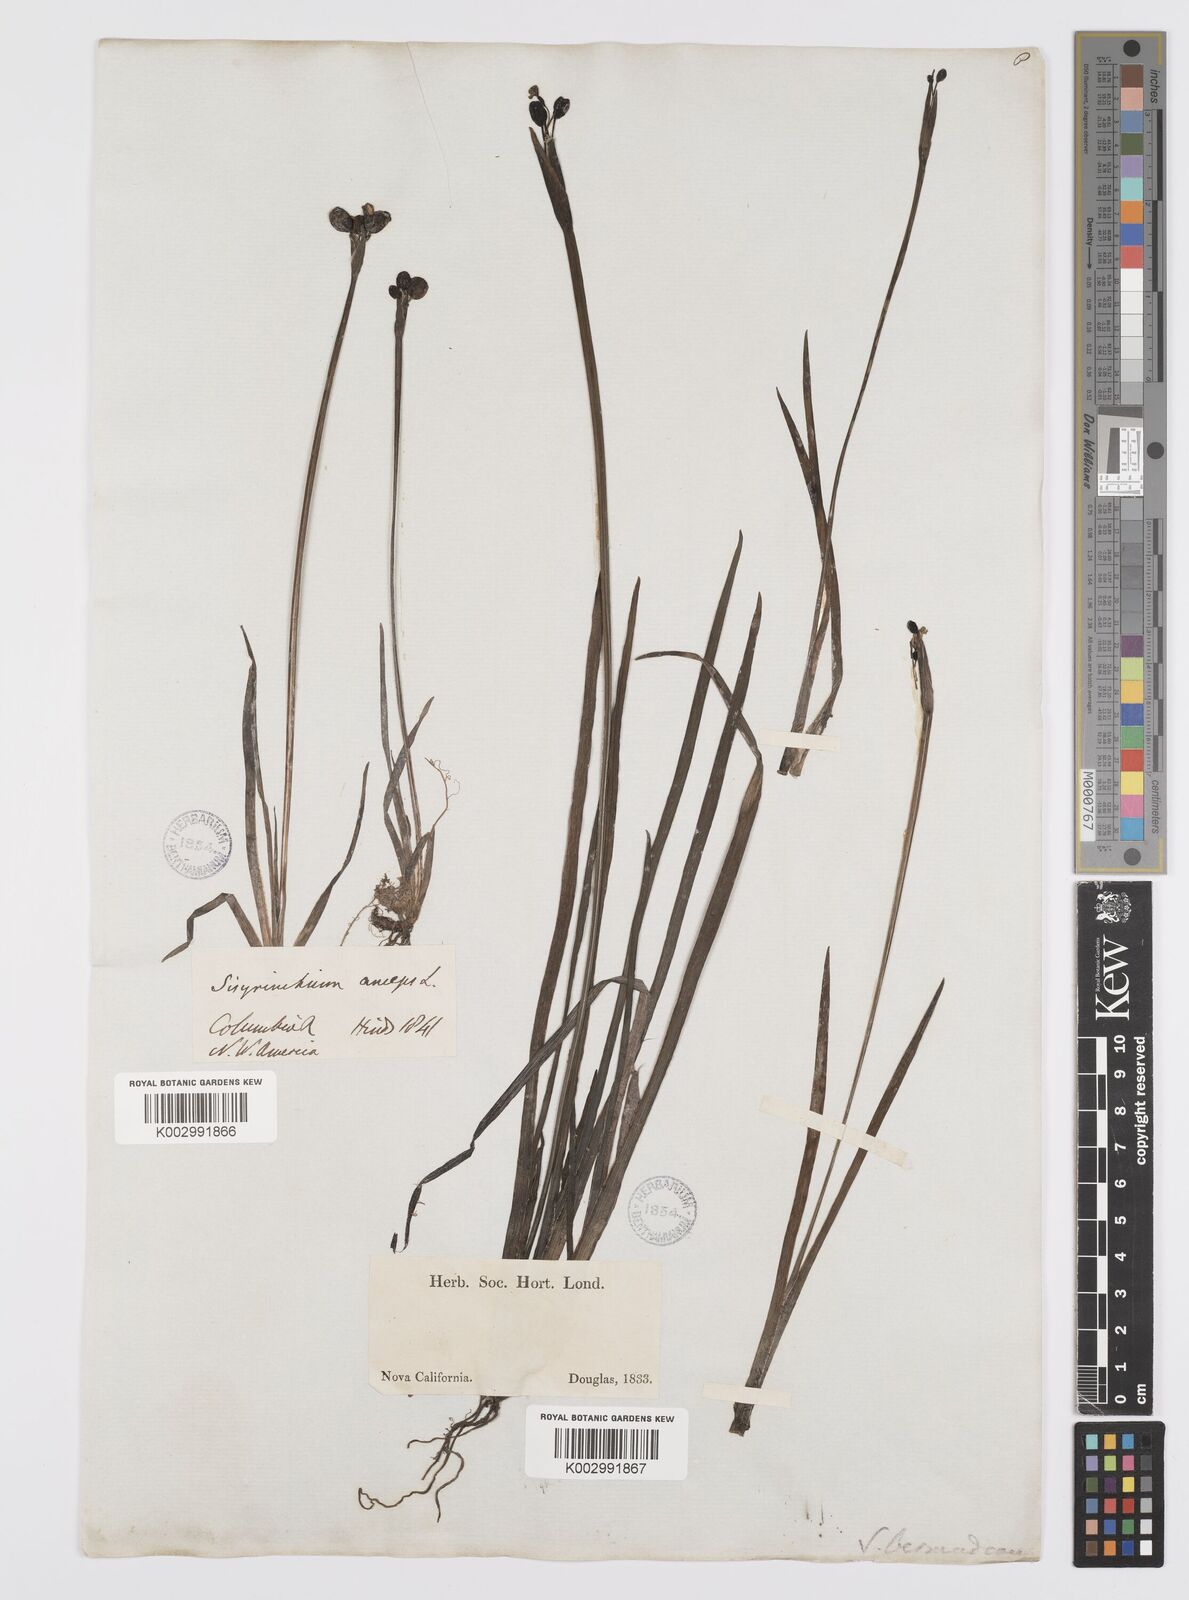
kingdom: Plantae
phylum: Tracheophyta
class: Liliopsida
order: Asparagales
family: Iridaceae
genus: Sisyrinchium
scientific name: Sisyrinchium
